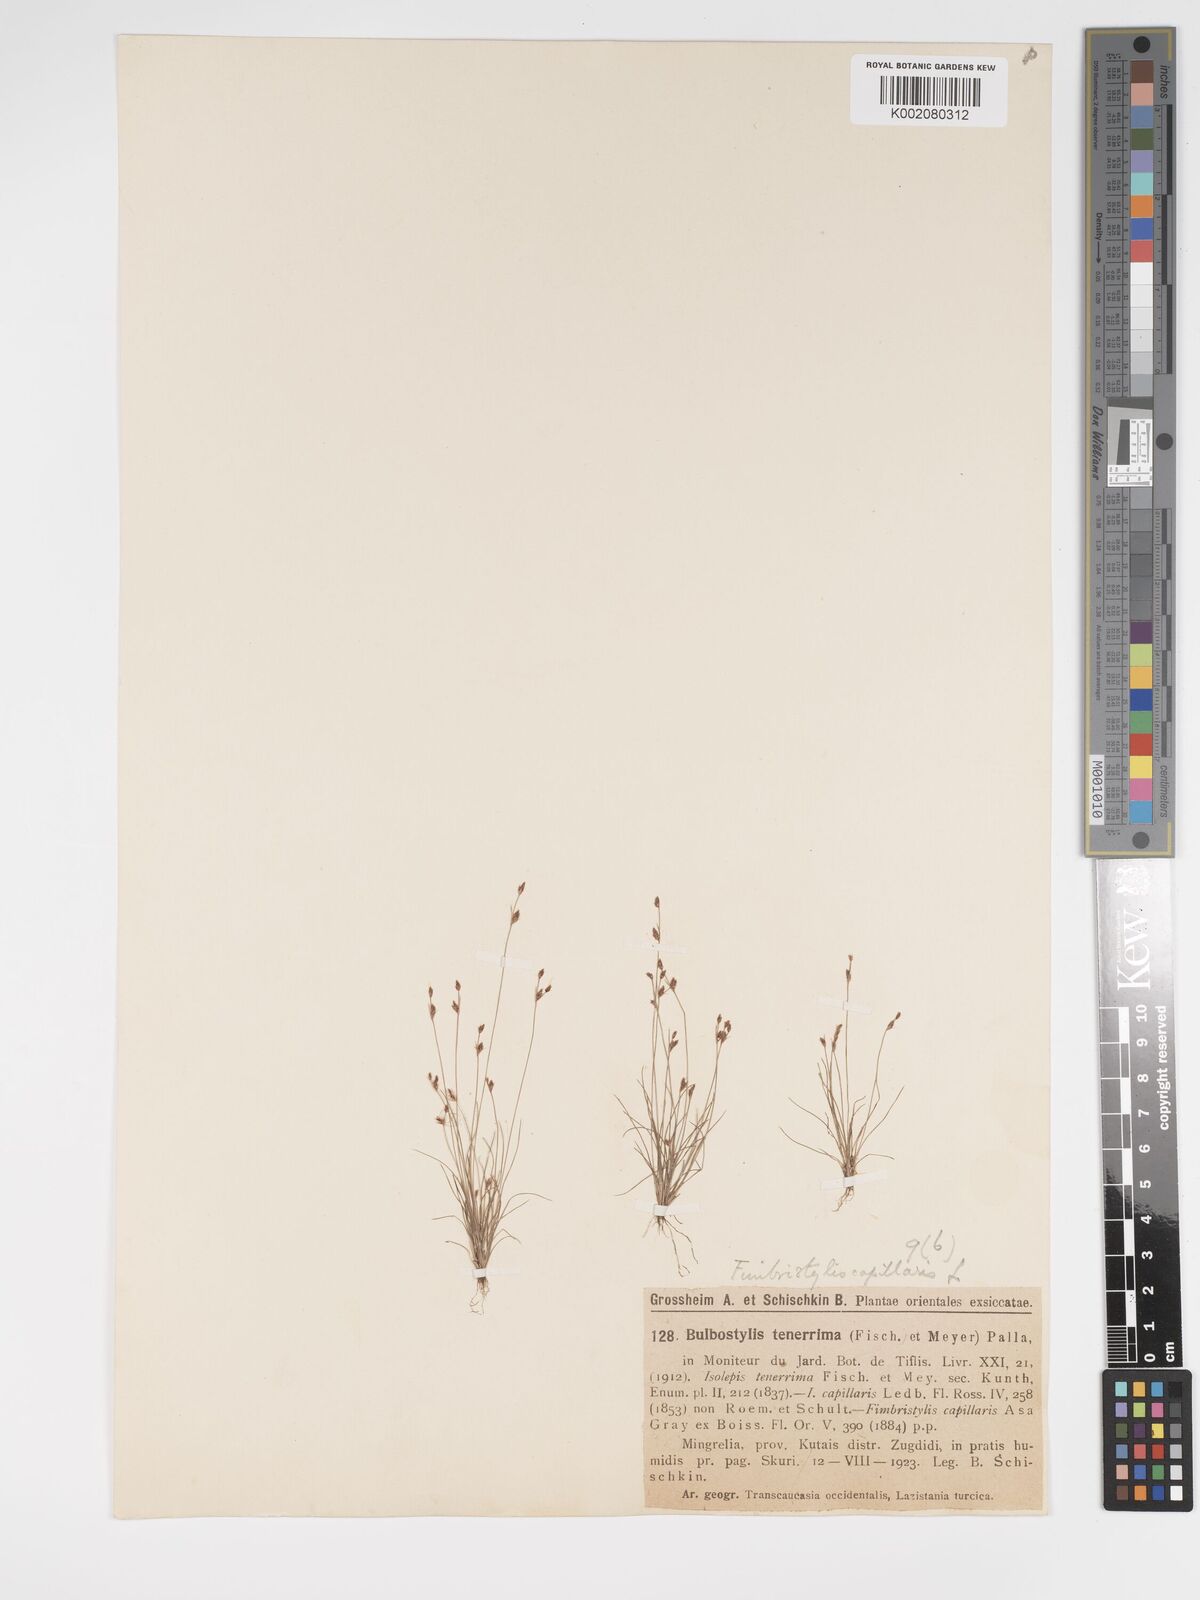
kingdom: Plantae
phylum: Tracheophyta
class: Liliopsida
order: Poales
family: Cyperaceae
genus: Bulbostylis
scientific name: Bulbostylis
